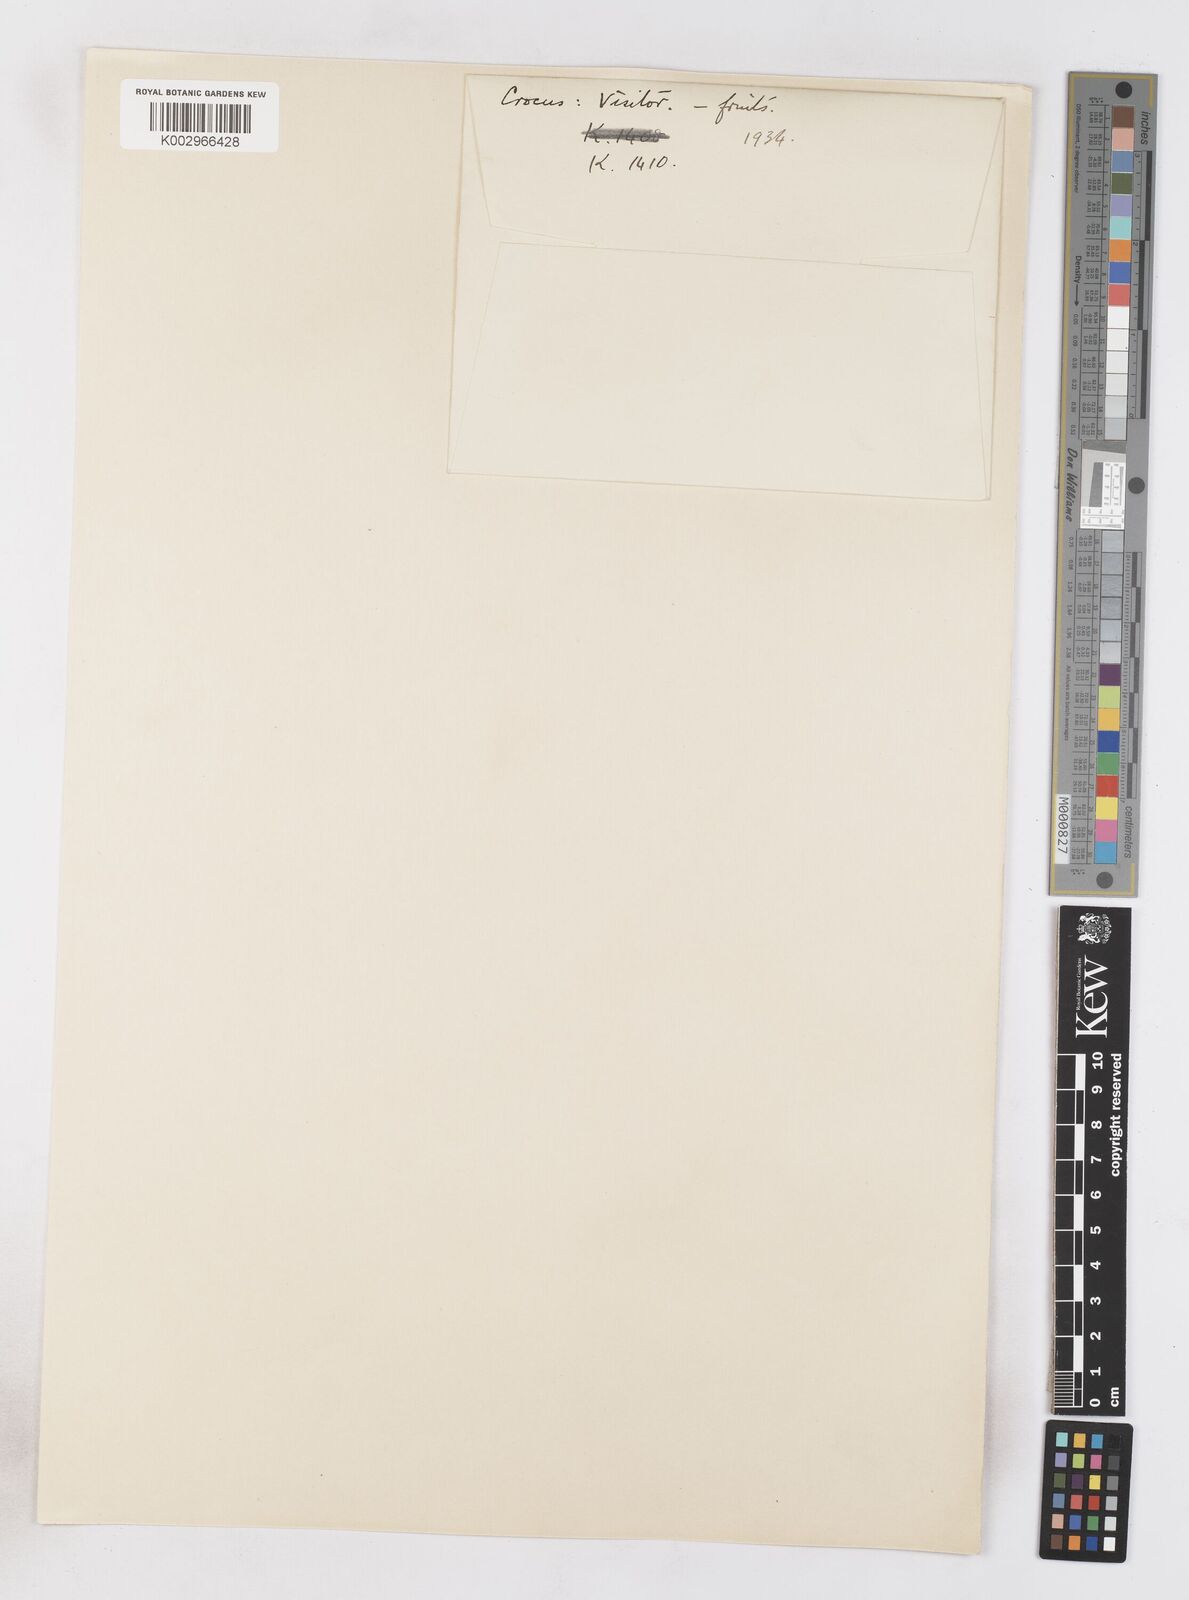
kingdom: Plantae
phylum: Tracheophyta
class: Liliopsida
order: Asparagales
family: Iridaceae
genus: Crocus
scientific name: Crocus vernus
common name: Spring crocus
